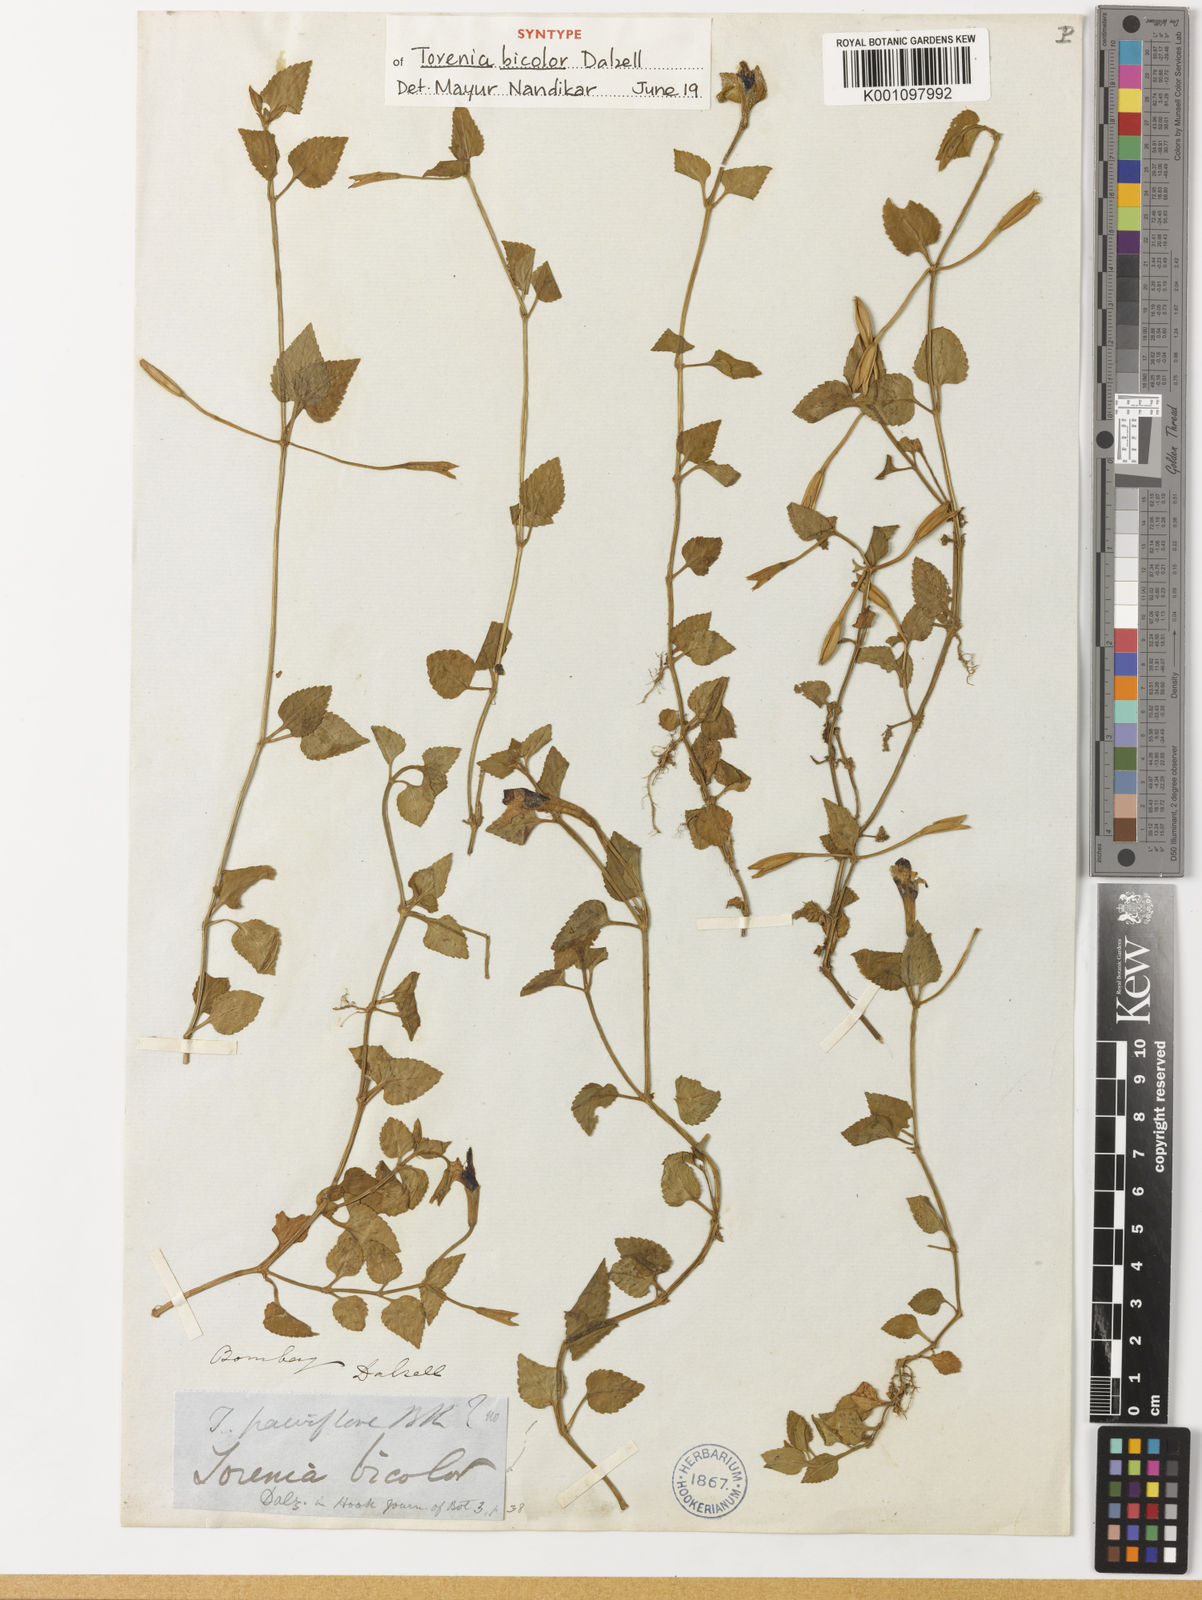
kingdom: Plantae
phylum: Tracheophyta
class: Magnoliopsida
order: Lamiales
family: Linderniaceae
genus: Torenia
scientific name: Torenia bicolor
